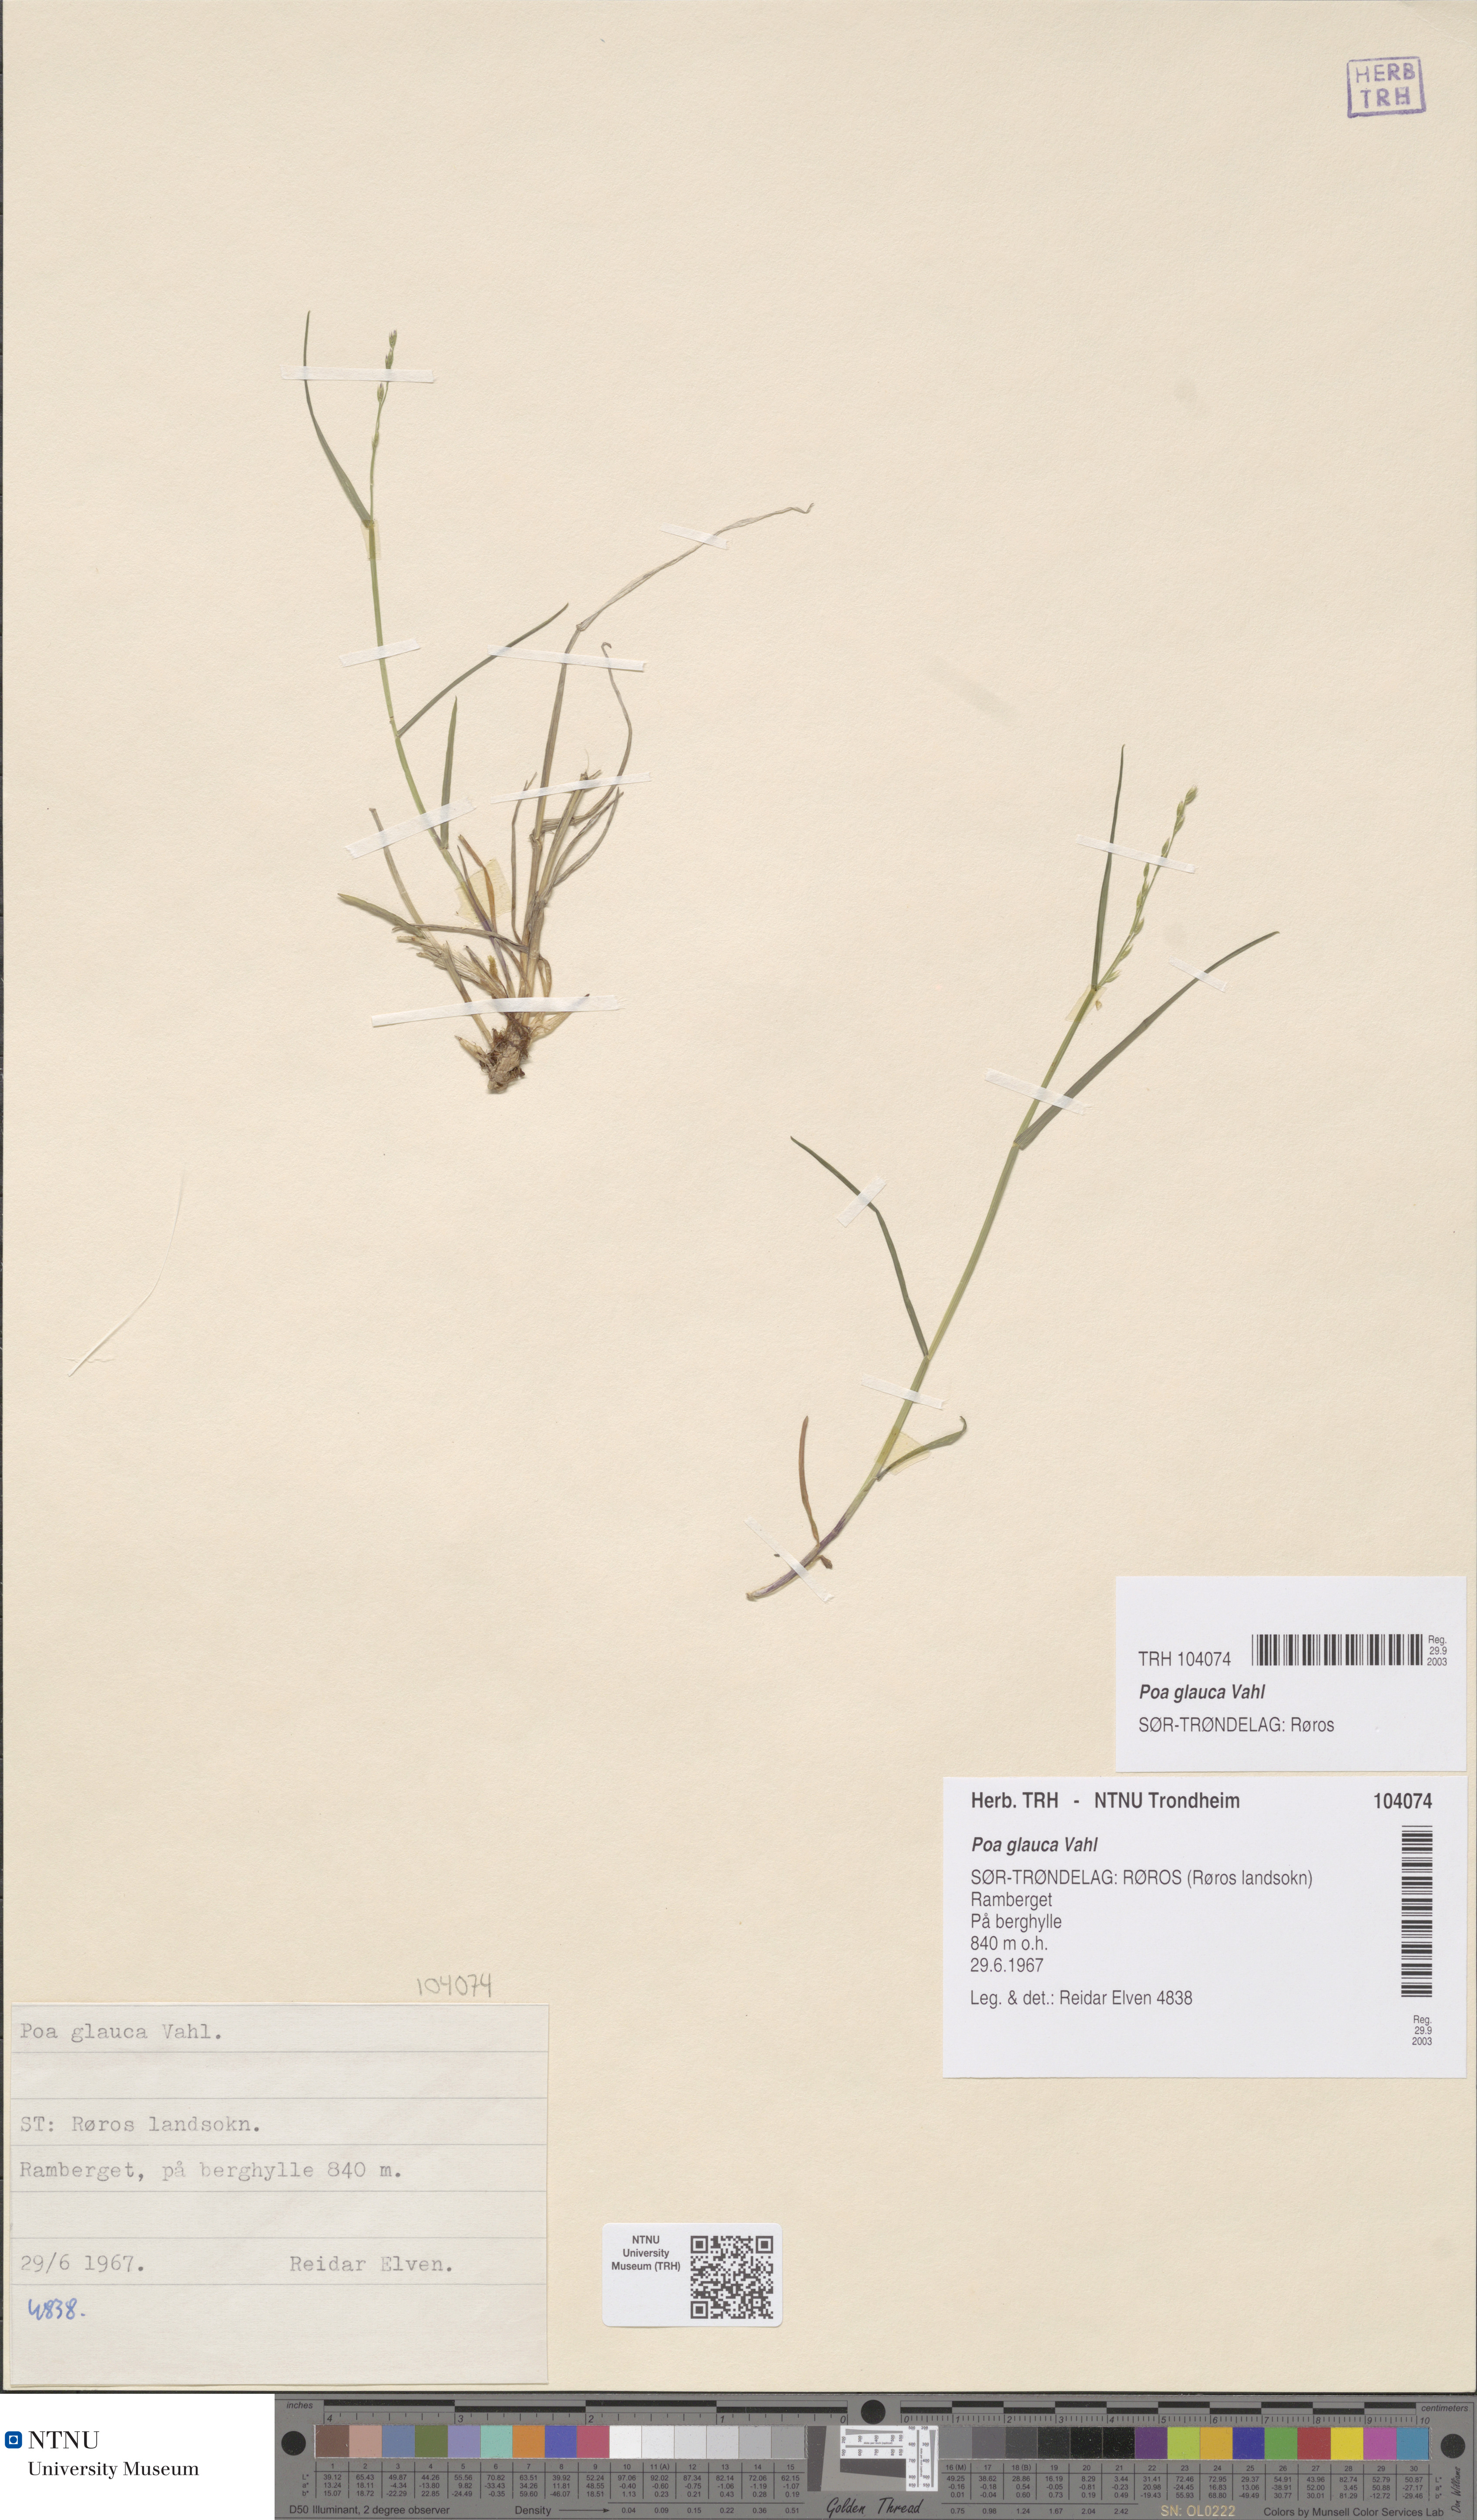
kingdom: Plantae
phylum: Tracheophyta
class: Liliopsida
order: Poales
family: Poaceae
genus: Poa
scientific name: Poa glauca
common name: Glaucous bluegrass
